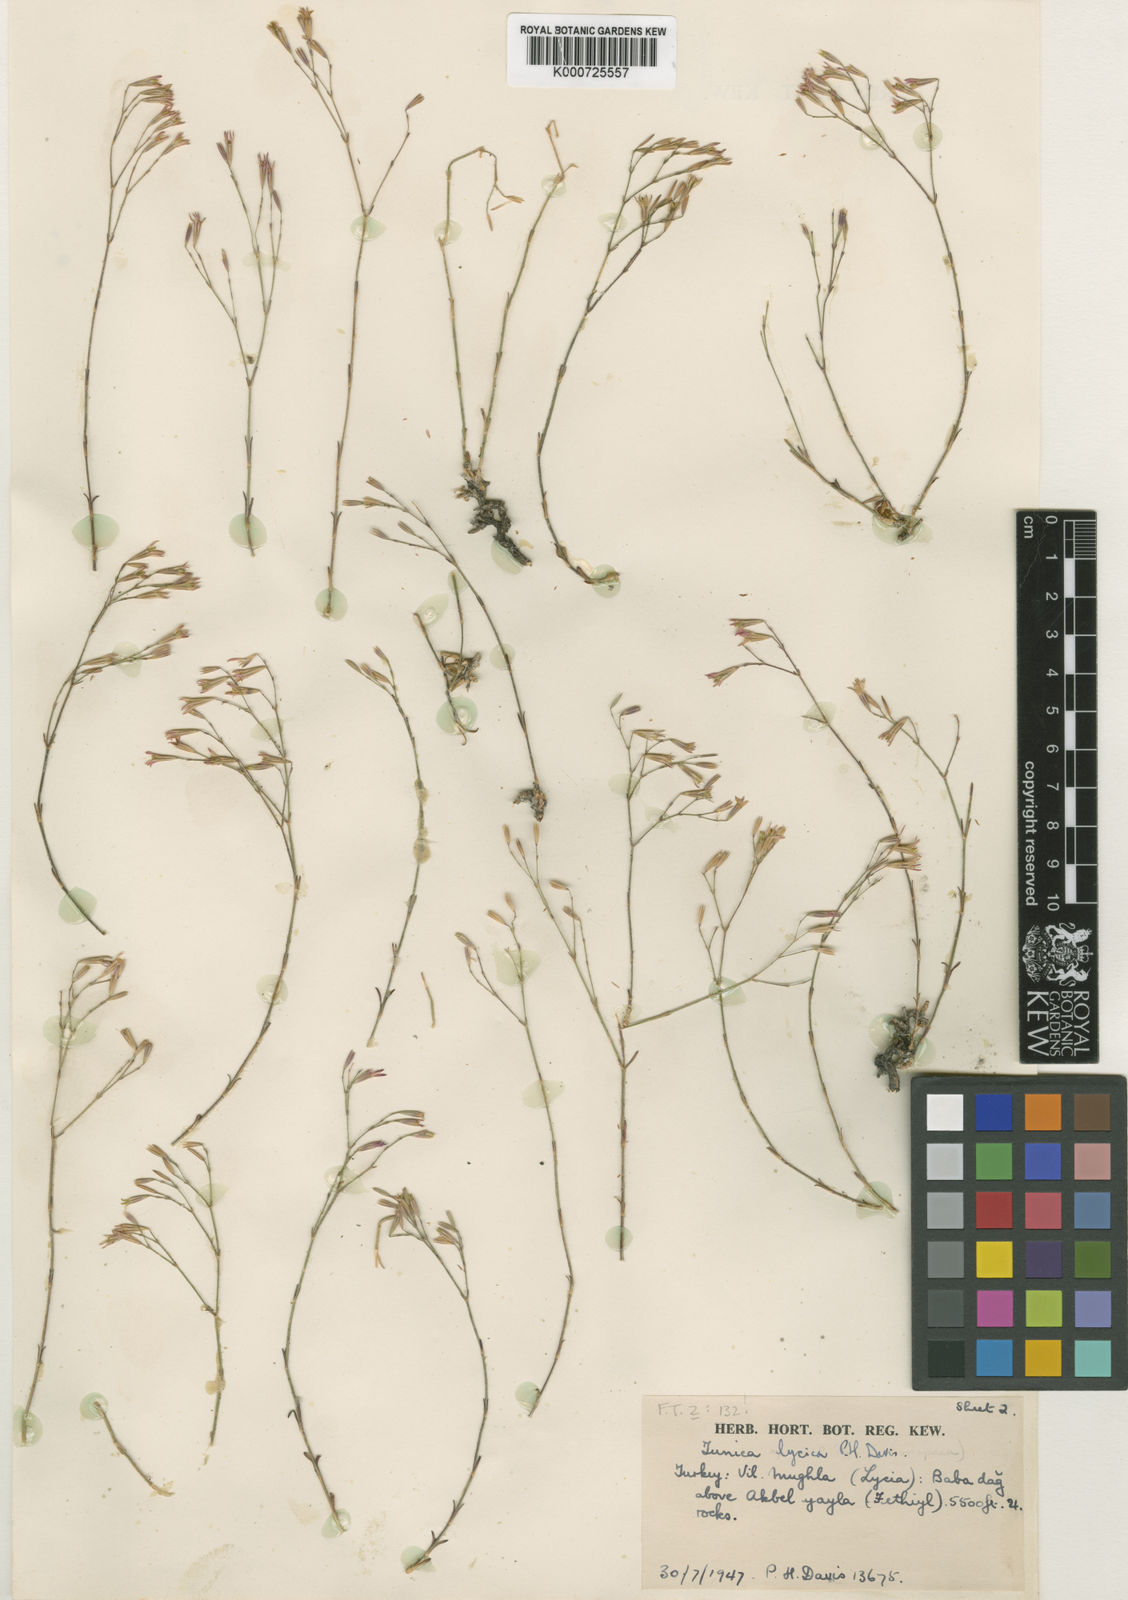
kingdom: Plantae
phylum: Tracheophyta
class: Magnoliopsida
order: Caryophyllales
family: Caryophyllaceae
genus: Petrorhagia
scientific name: Petrorhagia lycica
